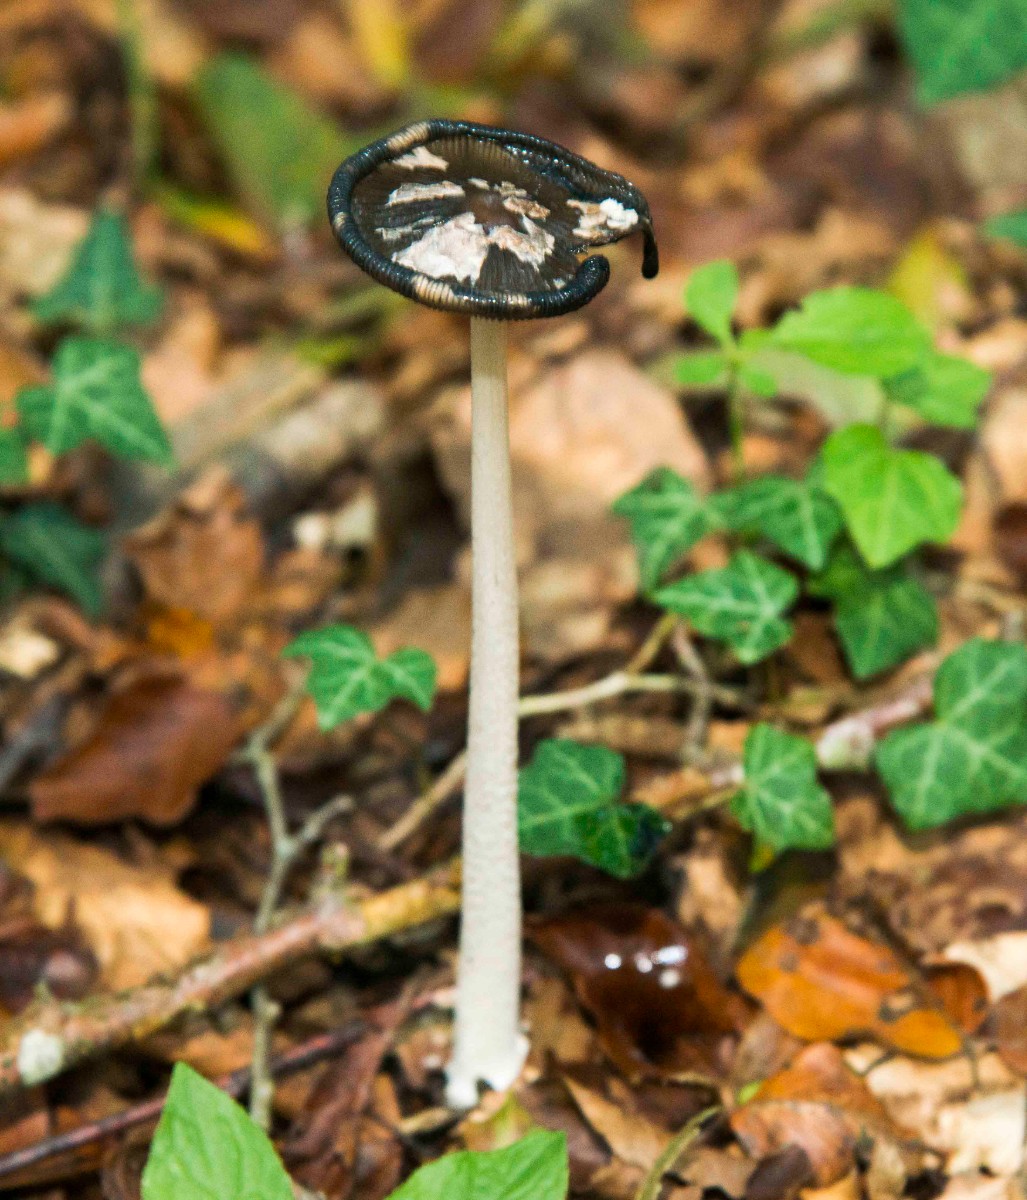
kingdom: Fungi
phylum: Basidiomycota
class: Agaricomycetes
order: Agaricales
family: Psathyrellaceae
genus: Coprinopsis
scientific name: Coprinopsis picacea
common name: skade-blækhat
